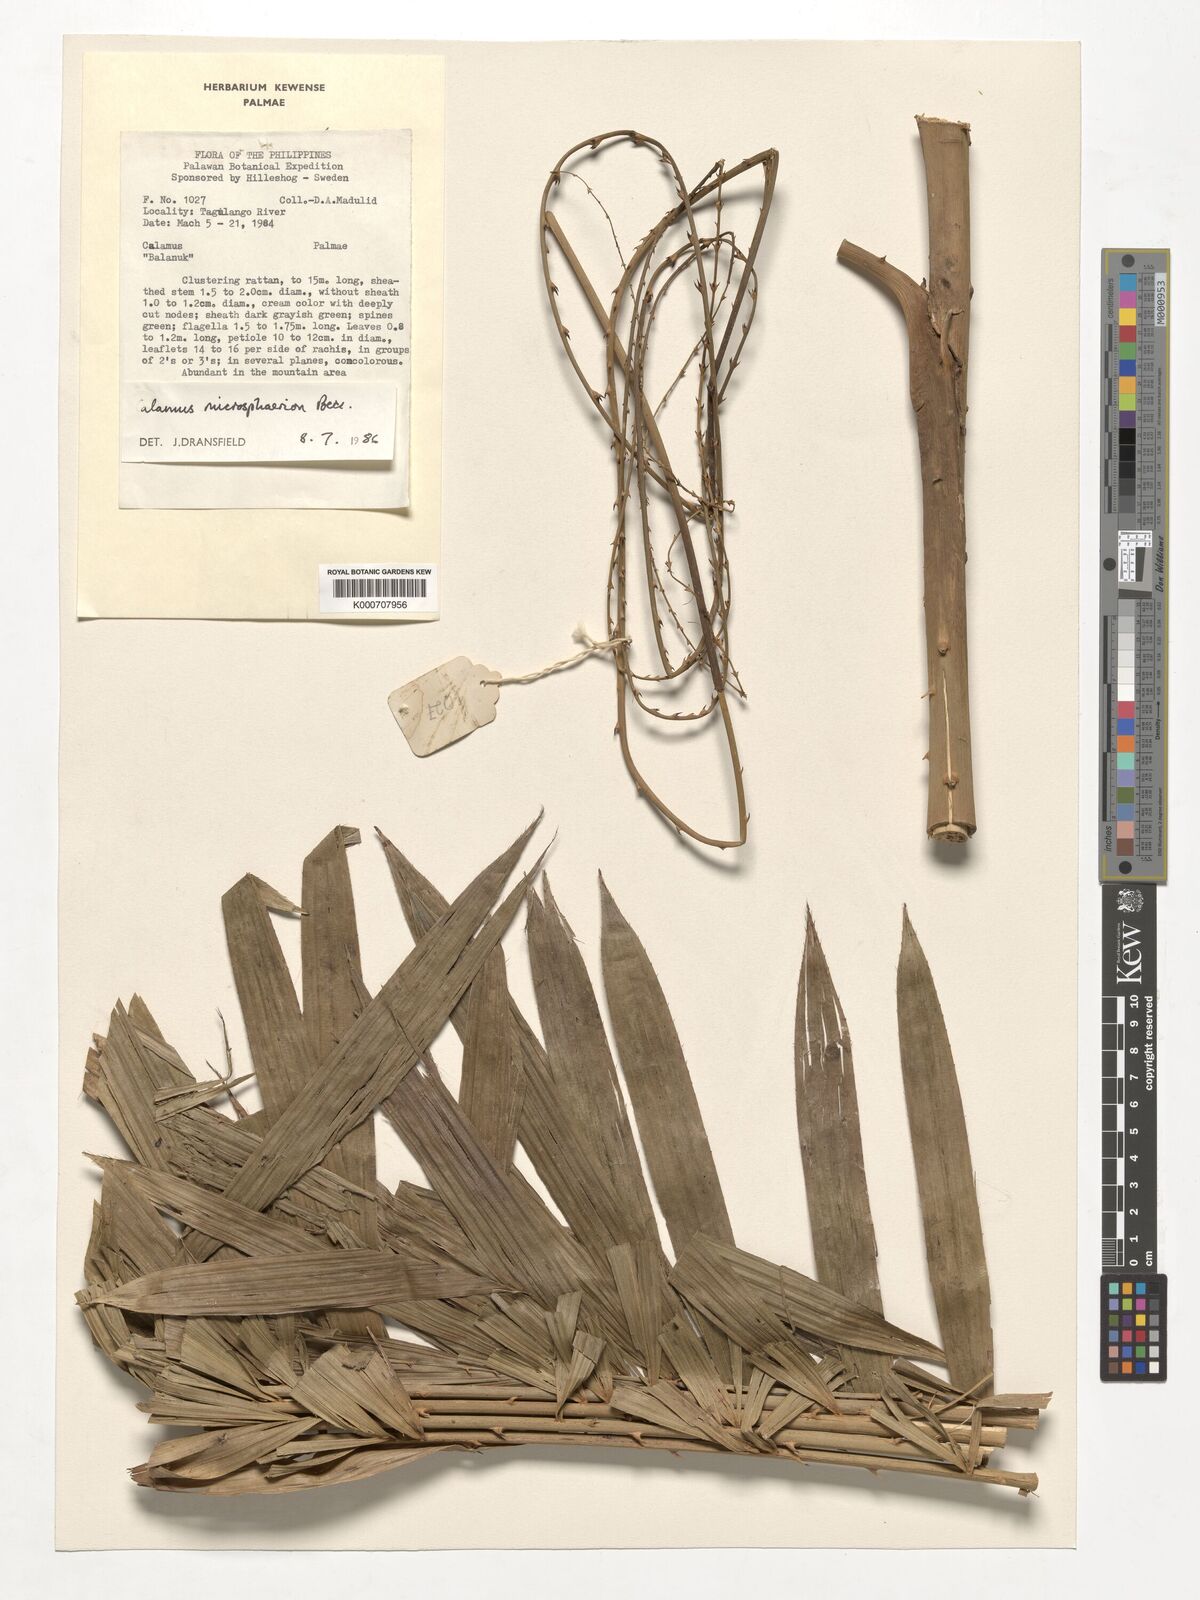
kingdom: Plantae
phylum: Tracheophyta
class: Liliopsida
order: Arecales
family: Arecaceae
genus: Calamus
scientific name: Calamus microsphaerion
